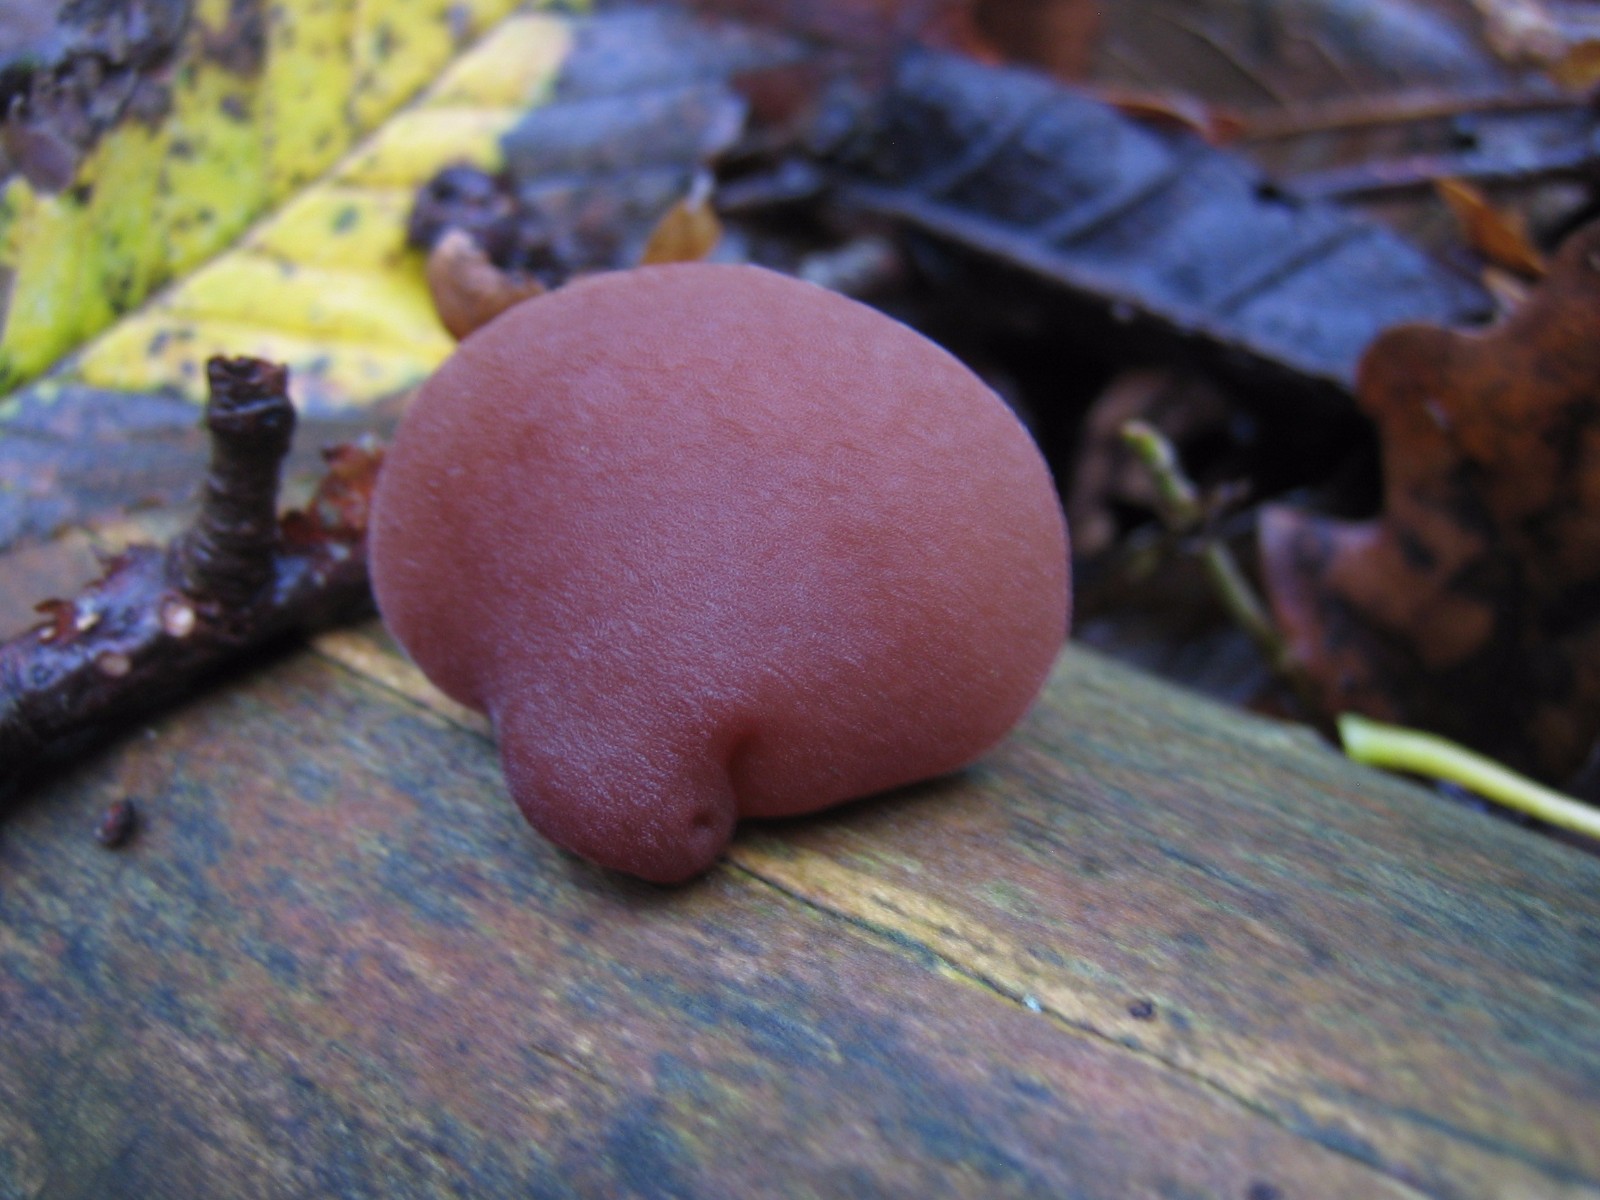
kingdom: Fungi
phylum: Basidiomycota
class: Agaricomycetes
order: Auriculariales
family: Auriculariaceae
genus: Auricularia
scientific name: Auricularia auricula-judae
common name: almindelig judasøre
